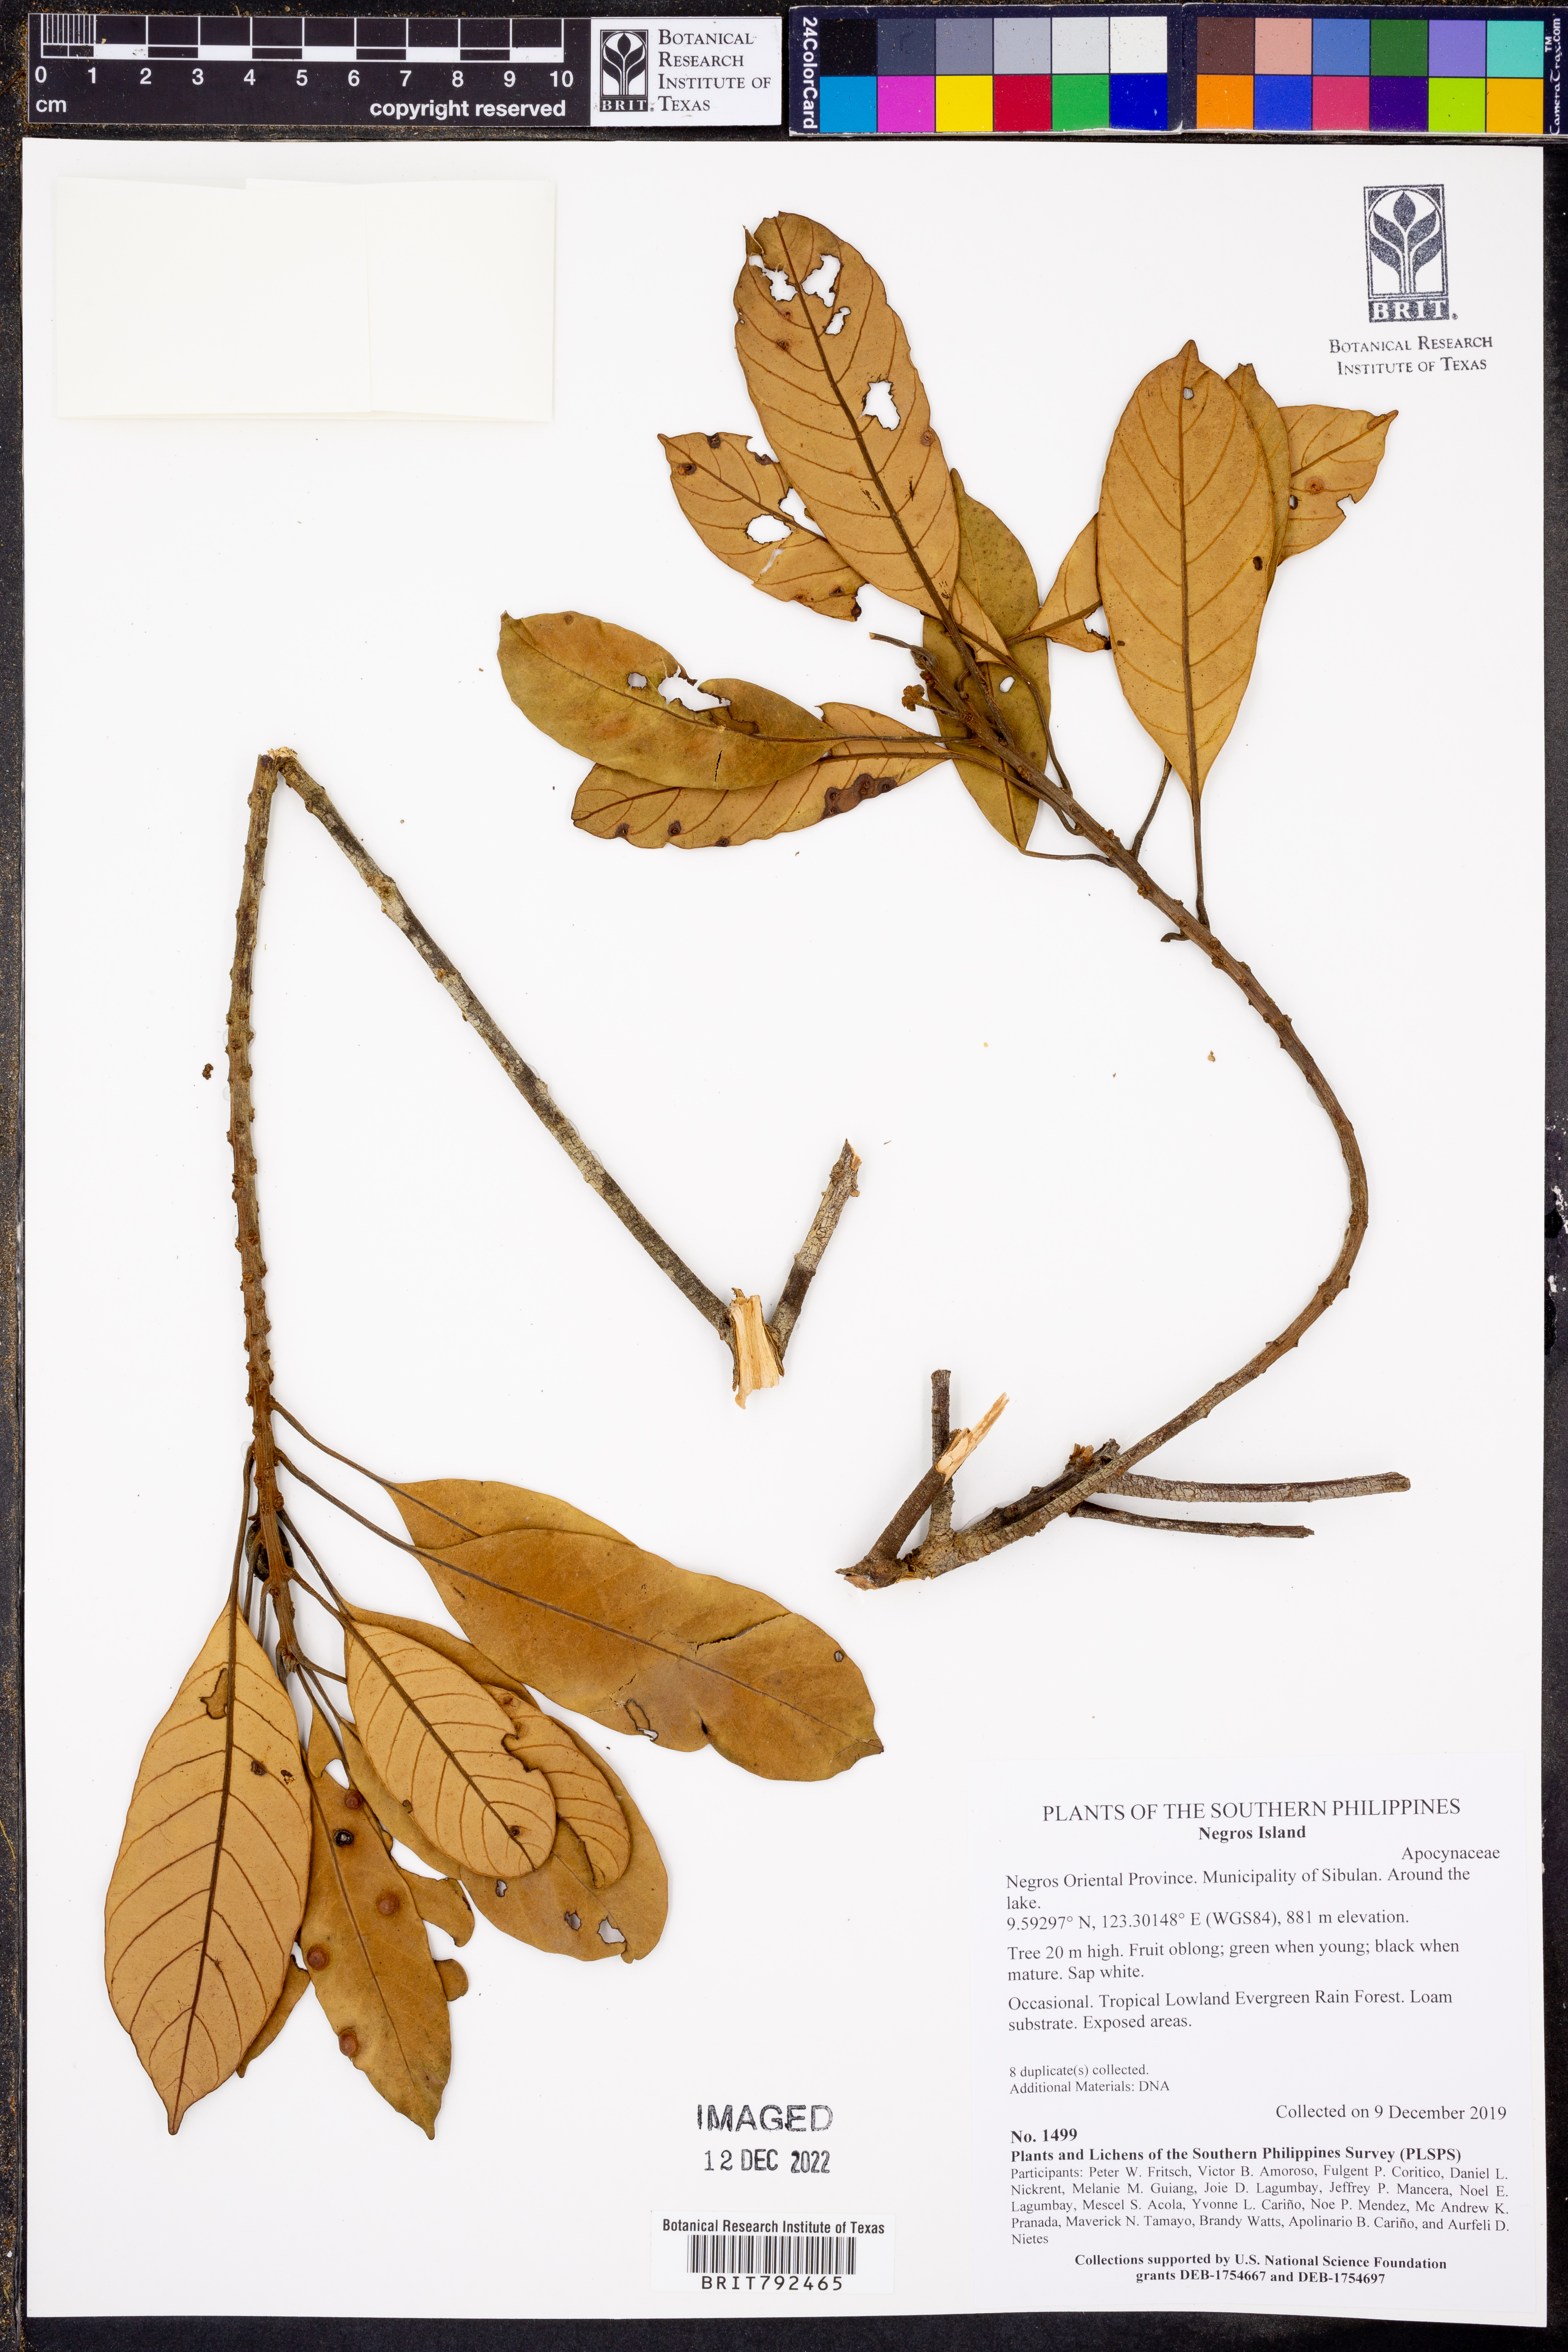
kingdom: Plantae
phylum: Tracheophyta
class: Magnoliopsida
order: Gentianales
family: Apocynaceae
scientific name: Apocynaceae
